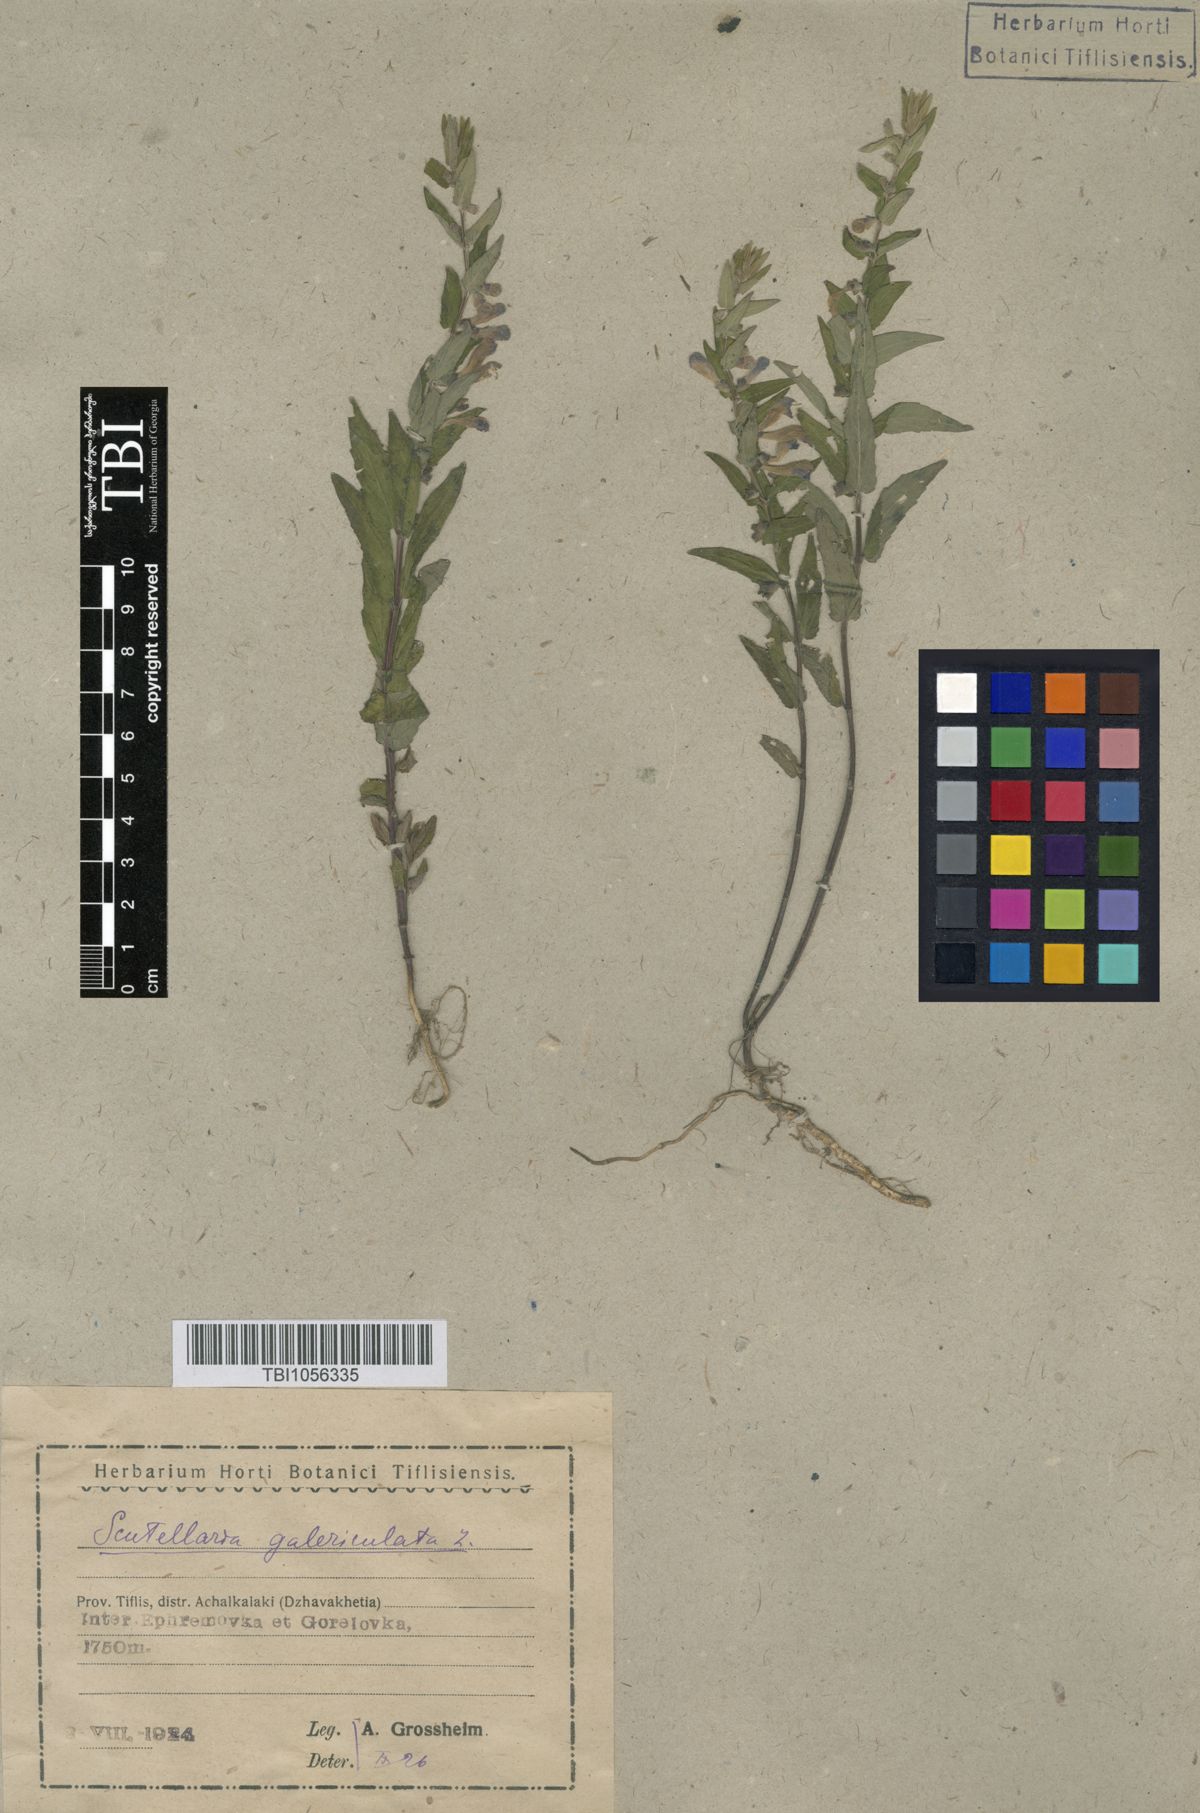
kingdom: Plantae
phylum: Tracheophyta
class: Magnoliopsida
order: Lamiales
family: Lamiaceae
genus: Scutellaria
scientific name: Scutellaria galericulata
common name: Skullcap
